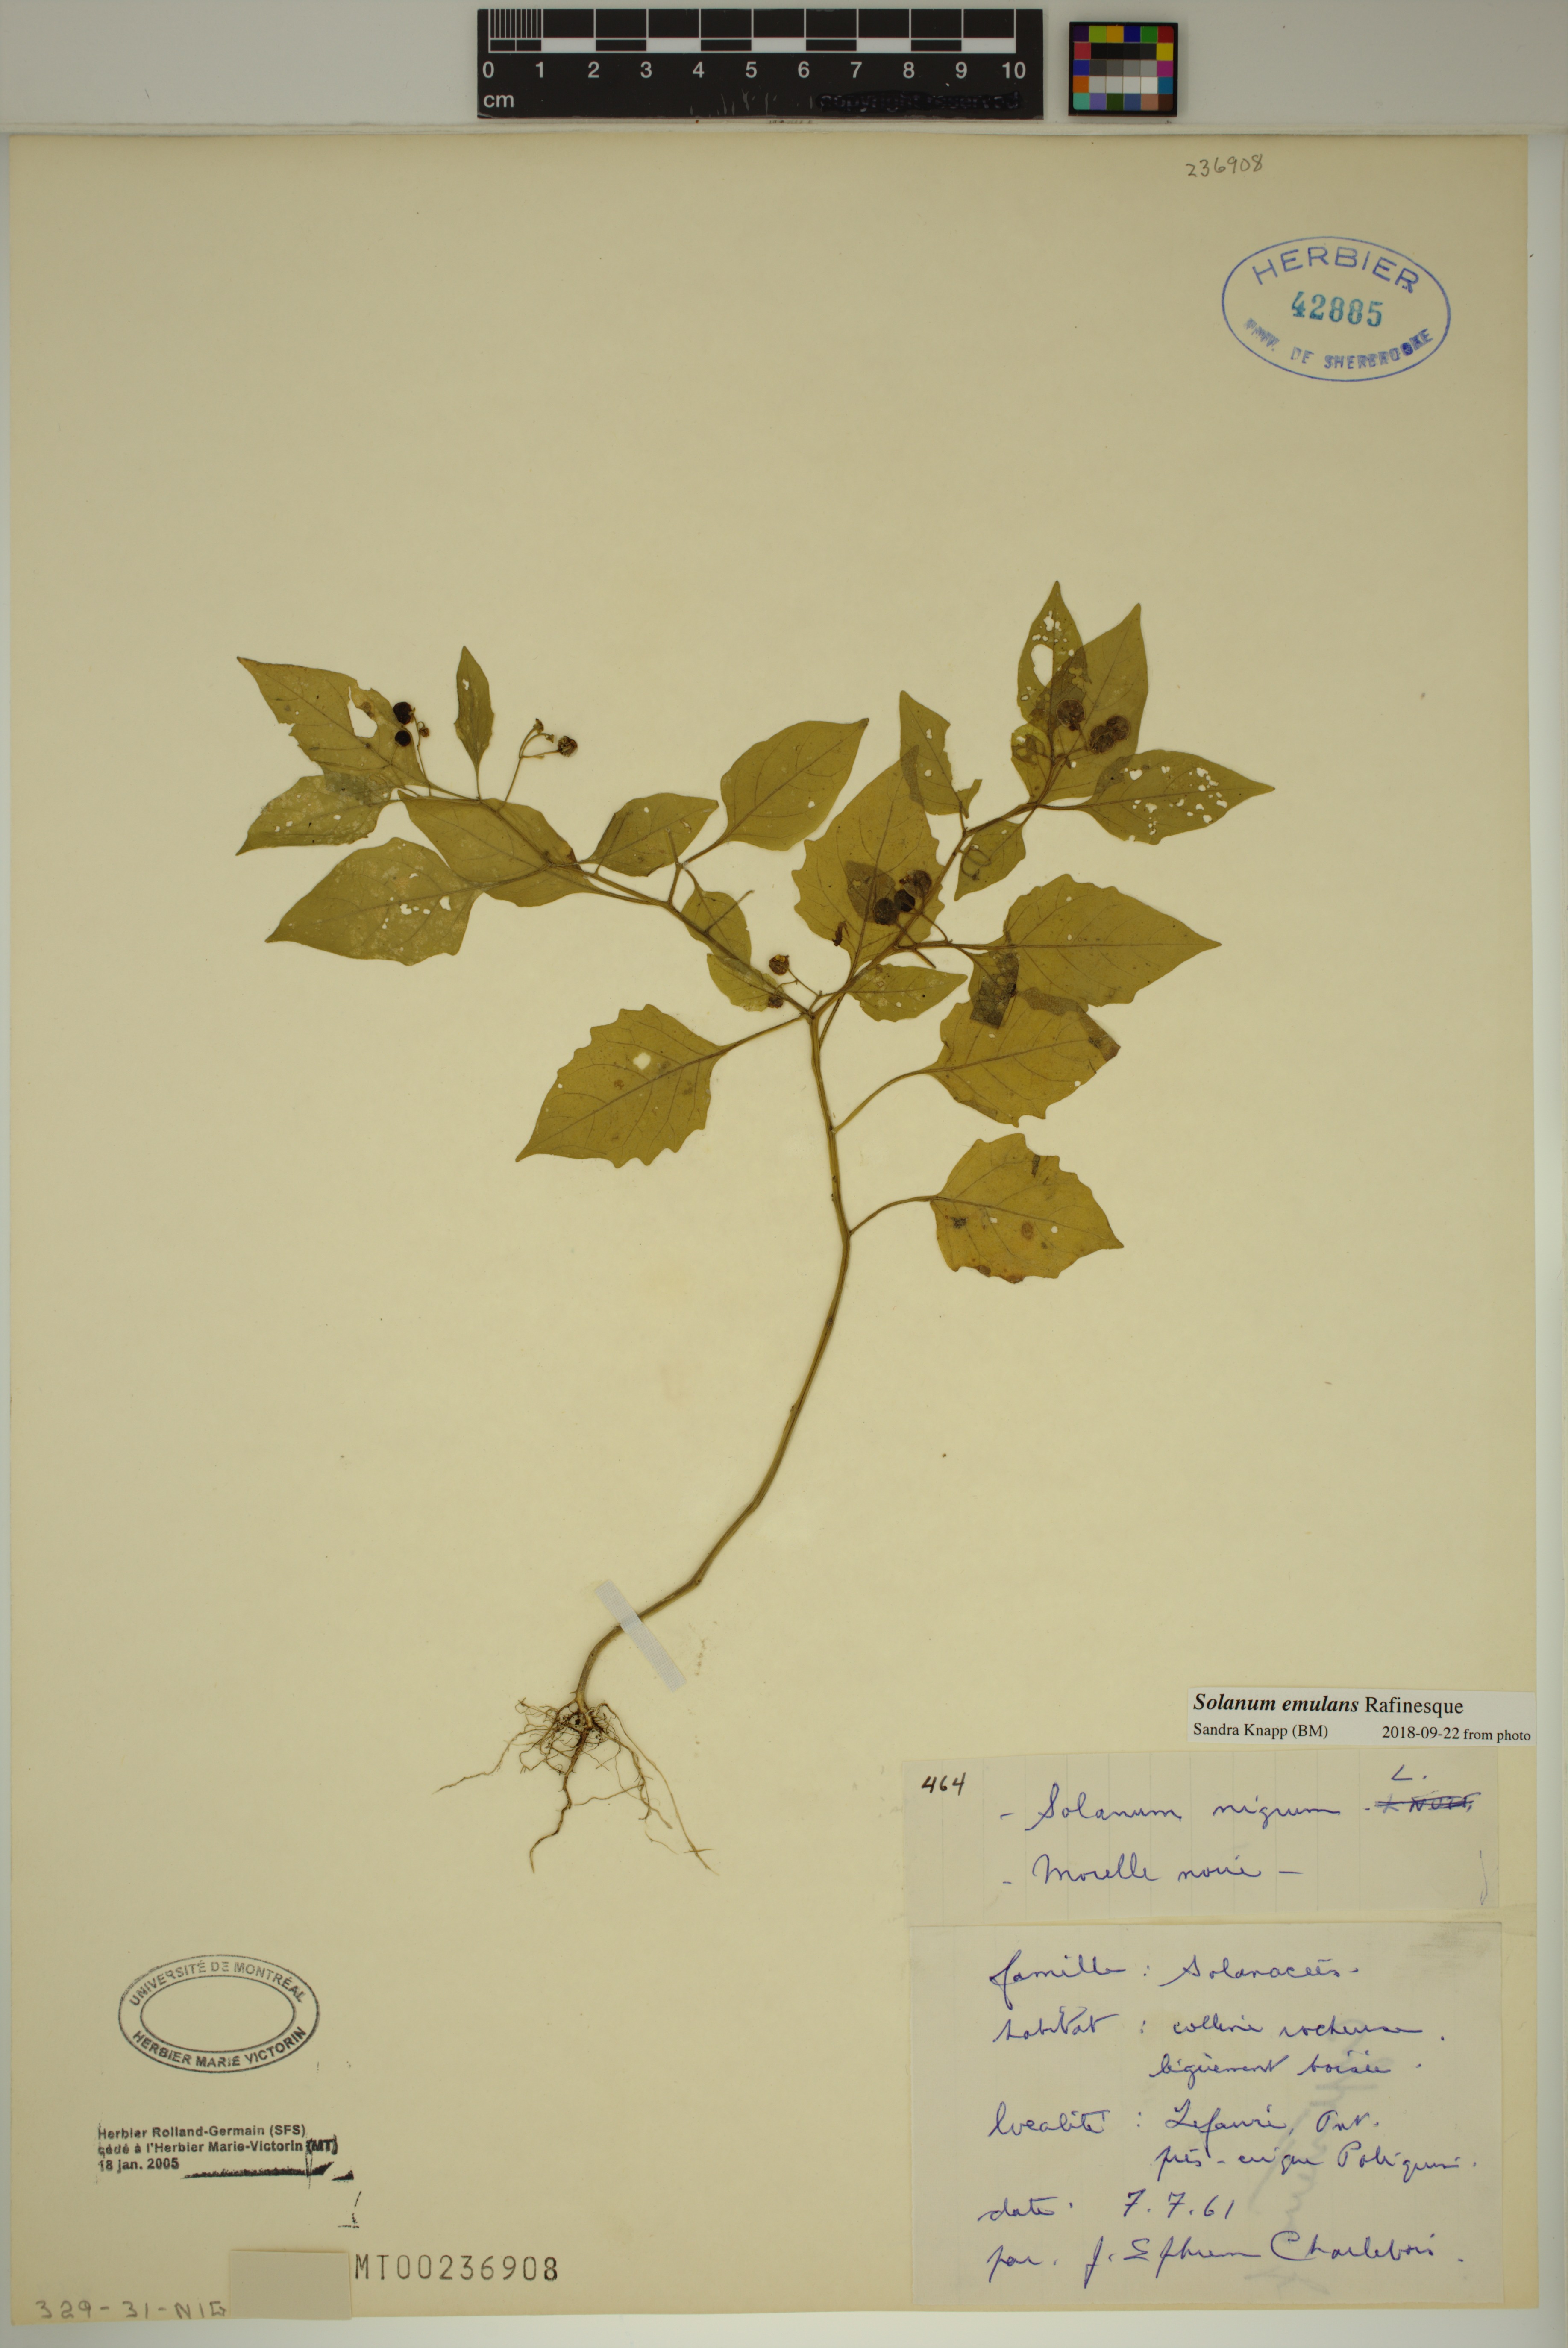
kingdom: Plantae
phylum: Tracheophyta
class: Magnoliopsida
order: Solanales
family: Solanaceae
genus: Solanum
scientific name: Solanum emulans
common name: Eastern black nightshade
